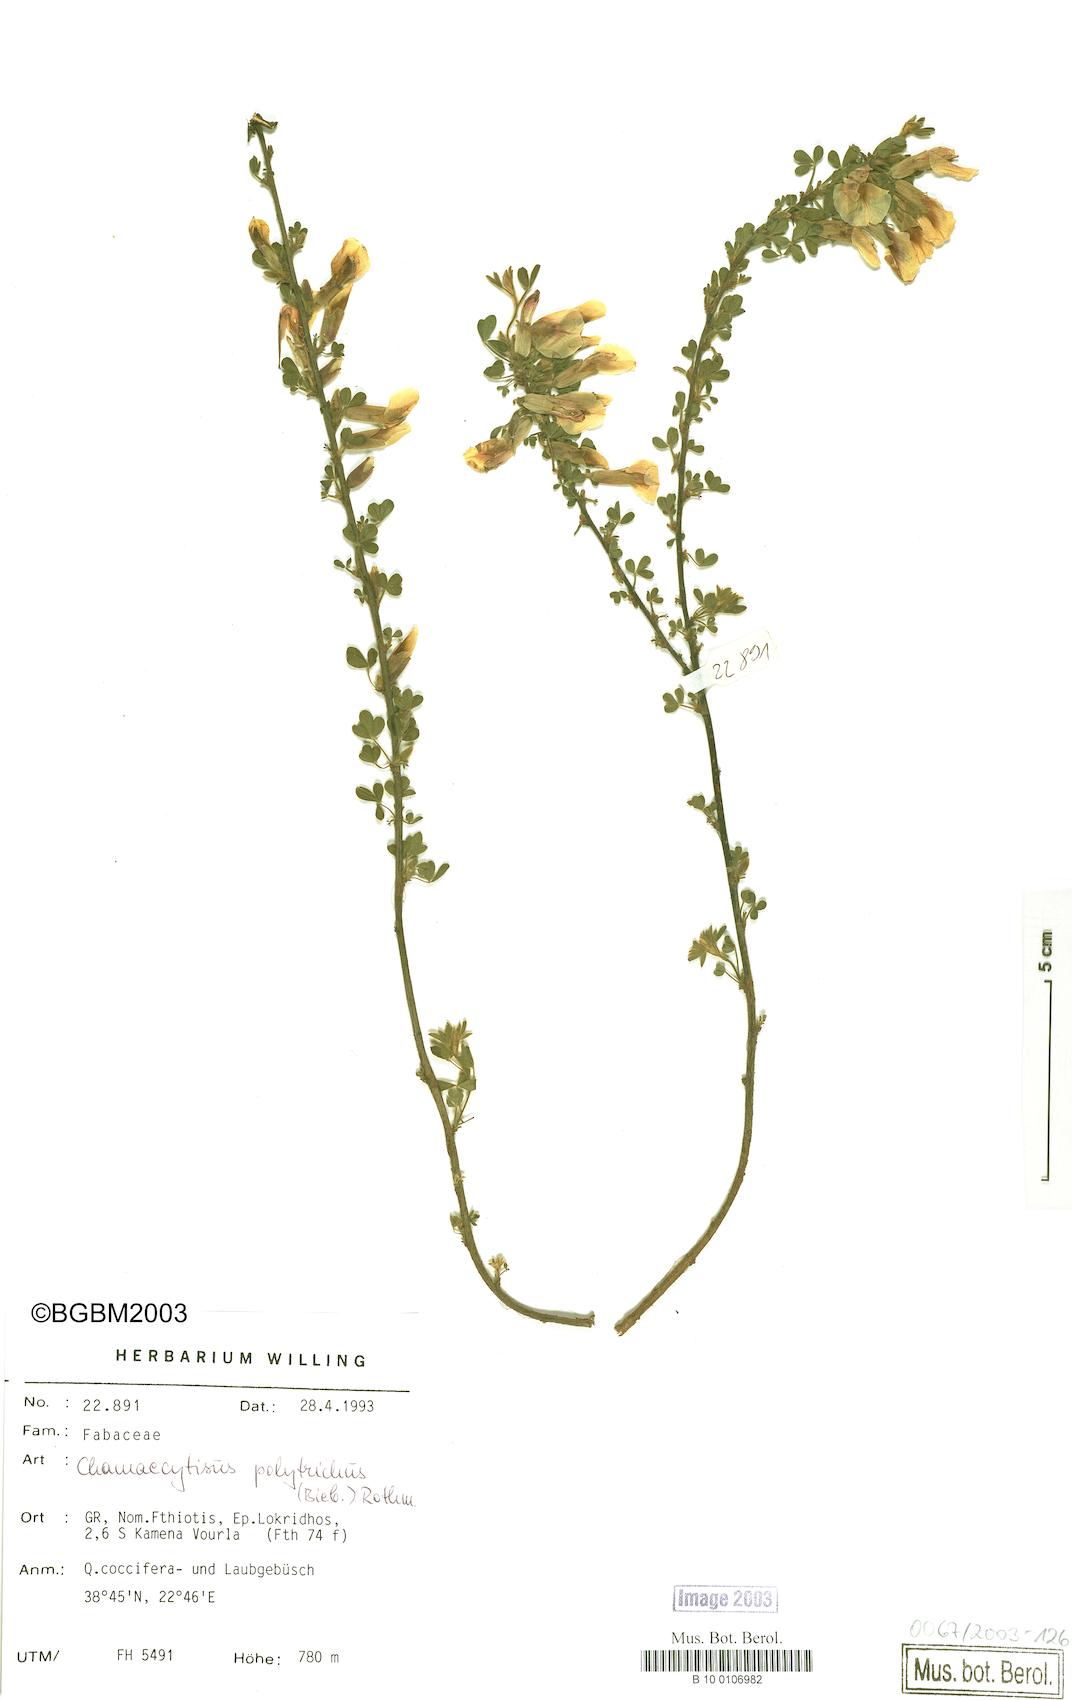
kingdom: Plantae
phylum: Tracheophyta
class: Magnoliopsida
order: Fabales
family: Fabaceae
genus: Chamaecytisus
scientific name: Chamaecytisus hirsutus
